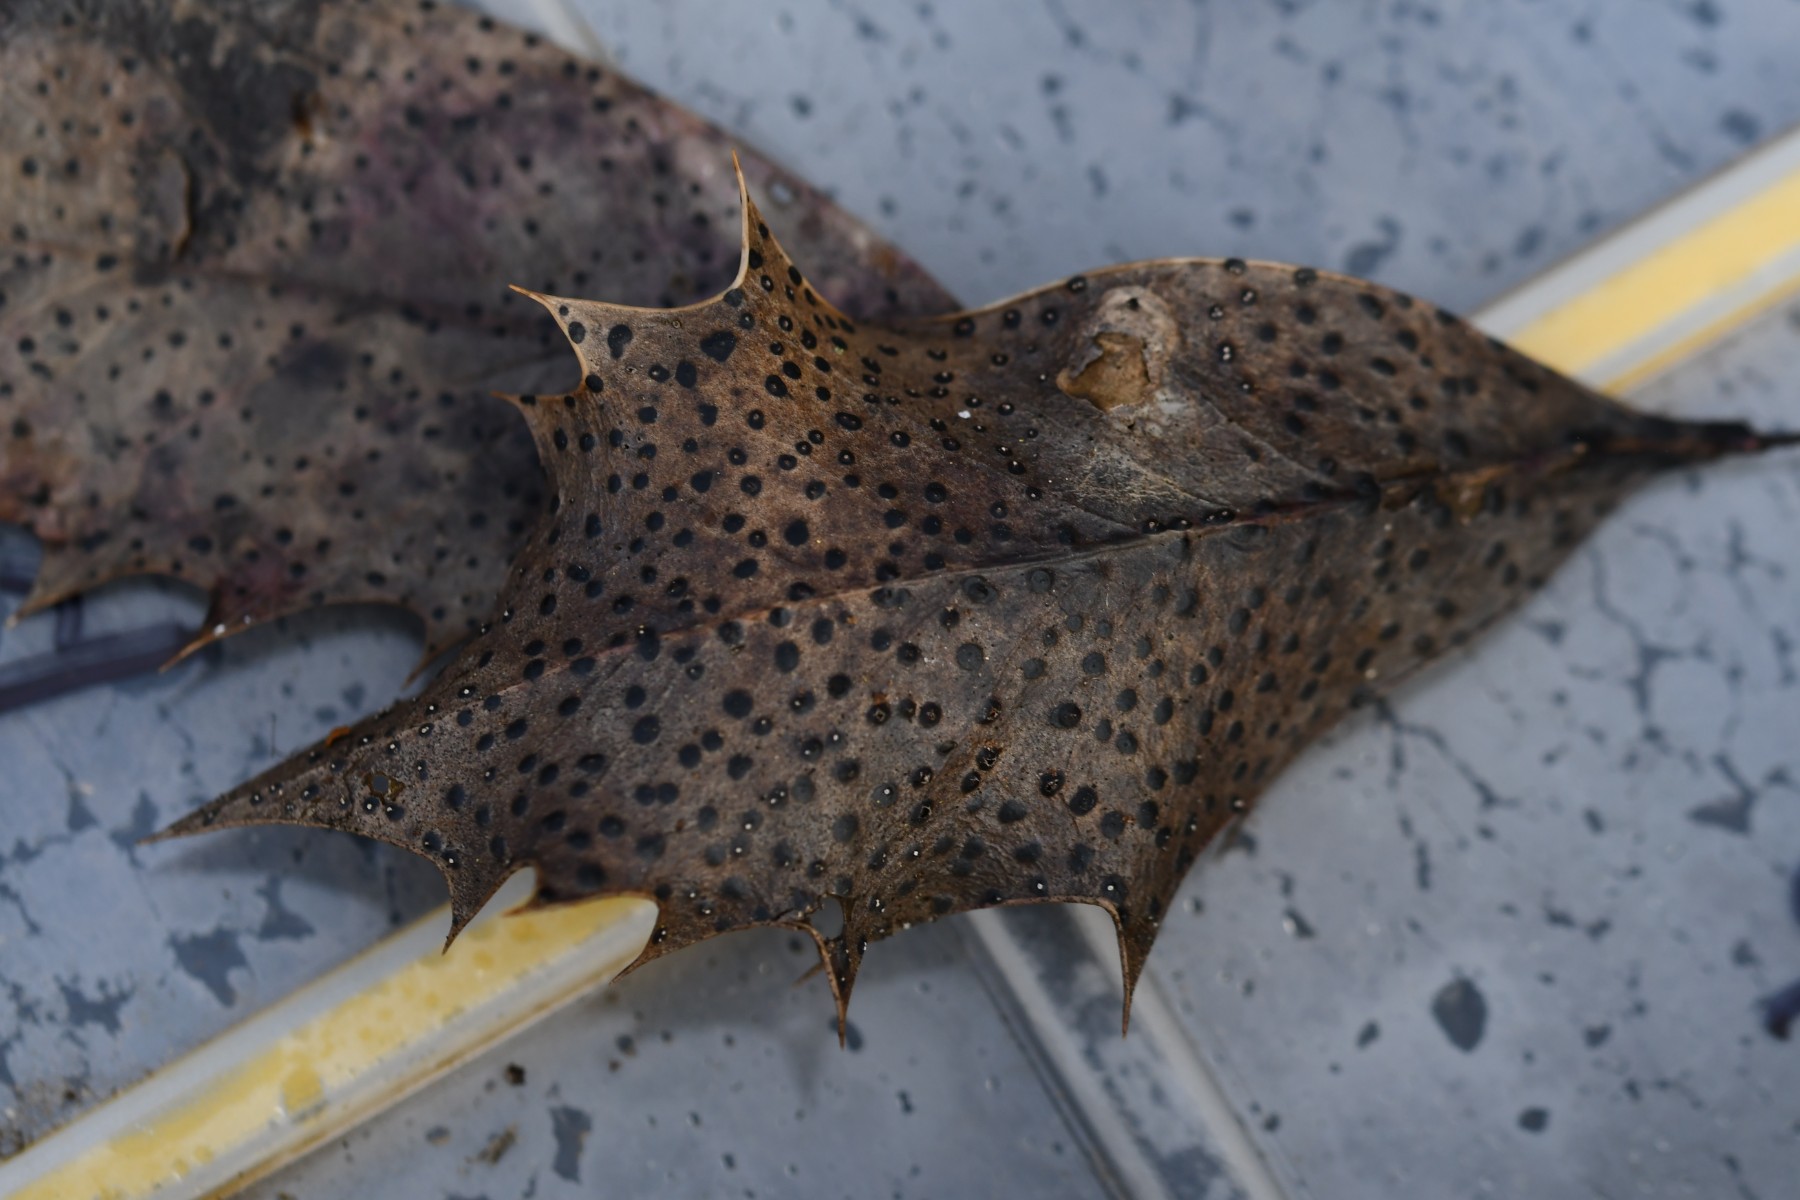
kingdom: Fungi
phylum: Ascomycota
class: Leotiomycetes
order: Phacidiales
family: Phacidiaceae
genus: Phacidium
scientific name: Phacidium lauri
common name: kristtorn-tandskive
